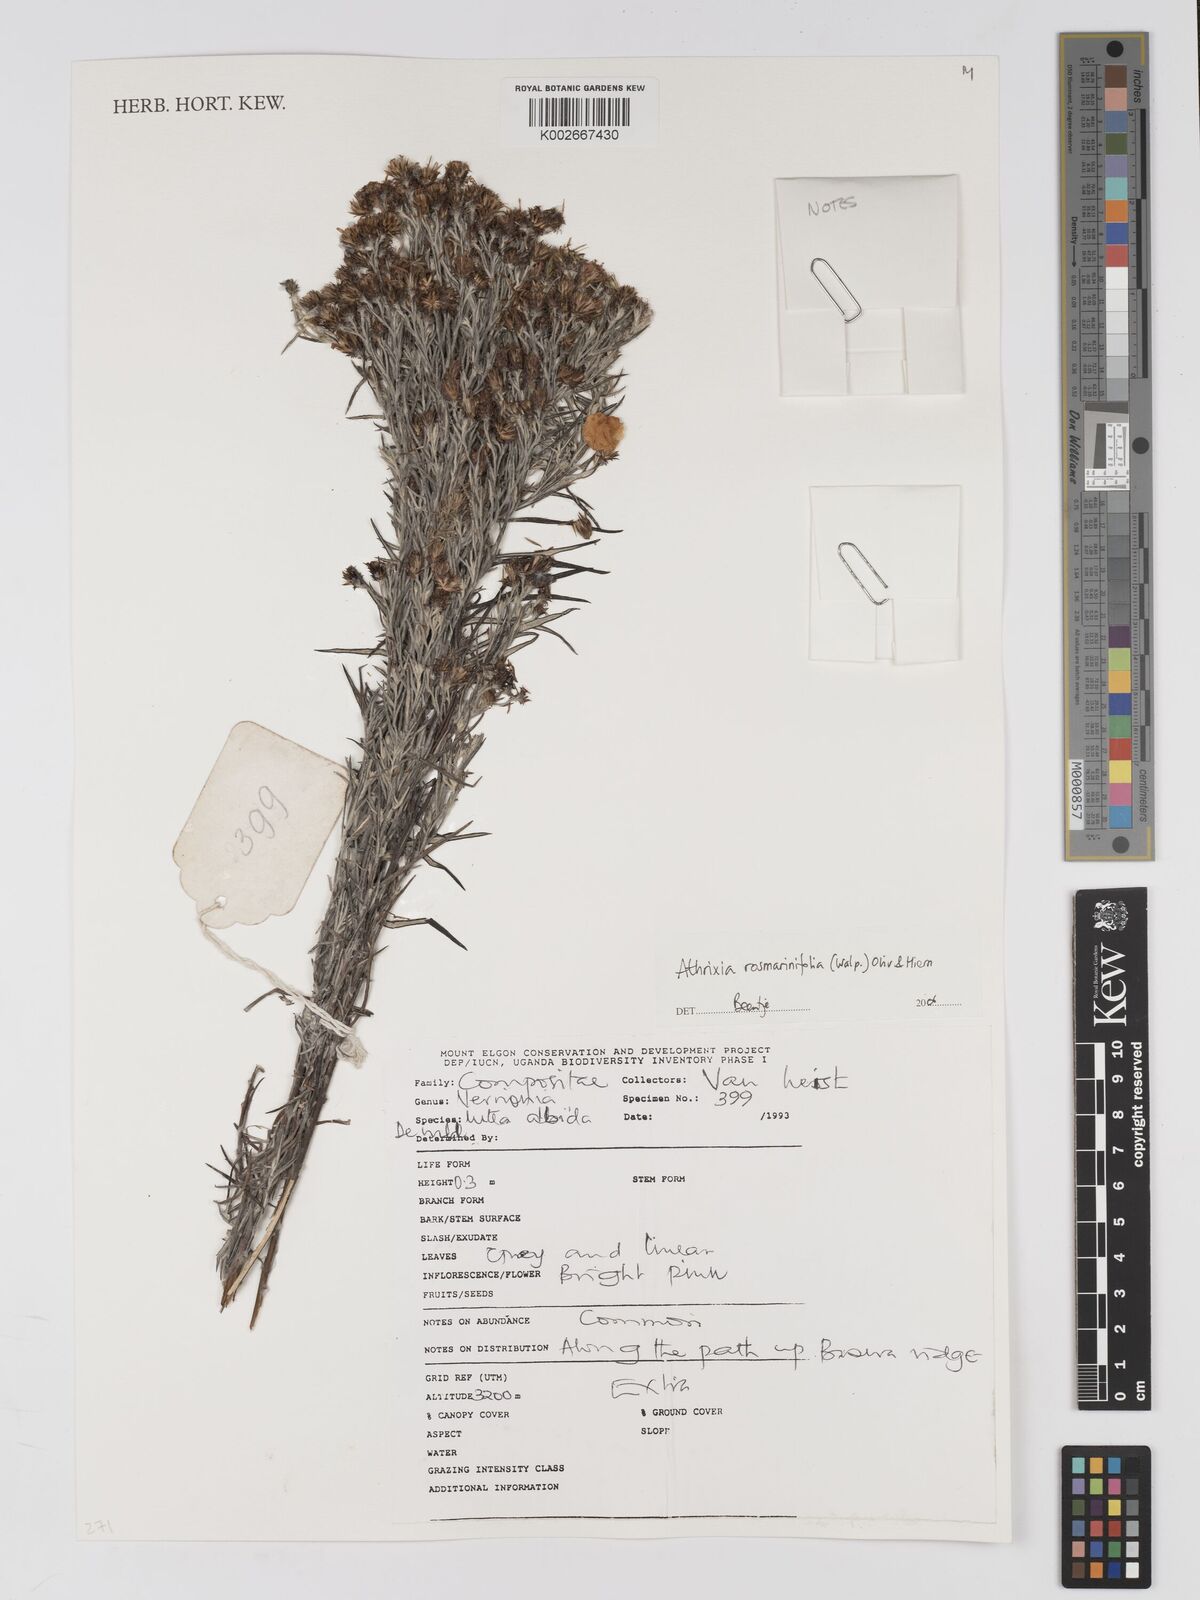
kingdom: Plantae
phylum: Tracheophyta
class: Magnoliopsida
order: Asterales
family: Asteraceae
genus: Athrixia
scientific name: Athrixia rosmarinifolia
